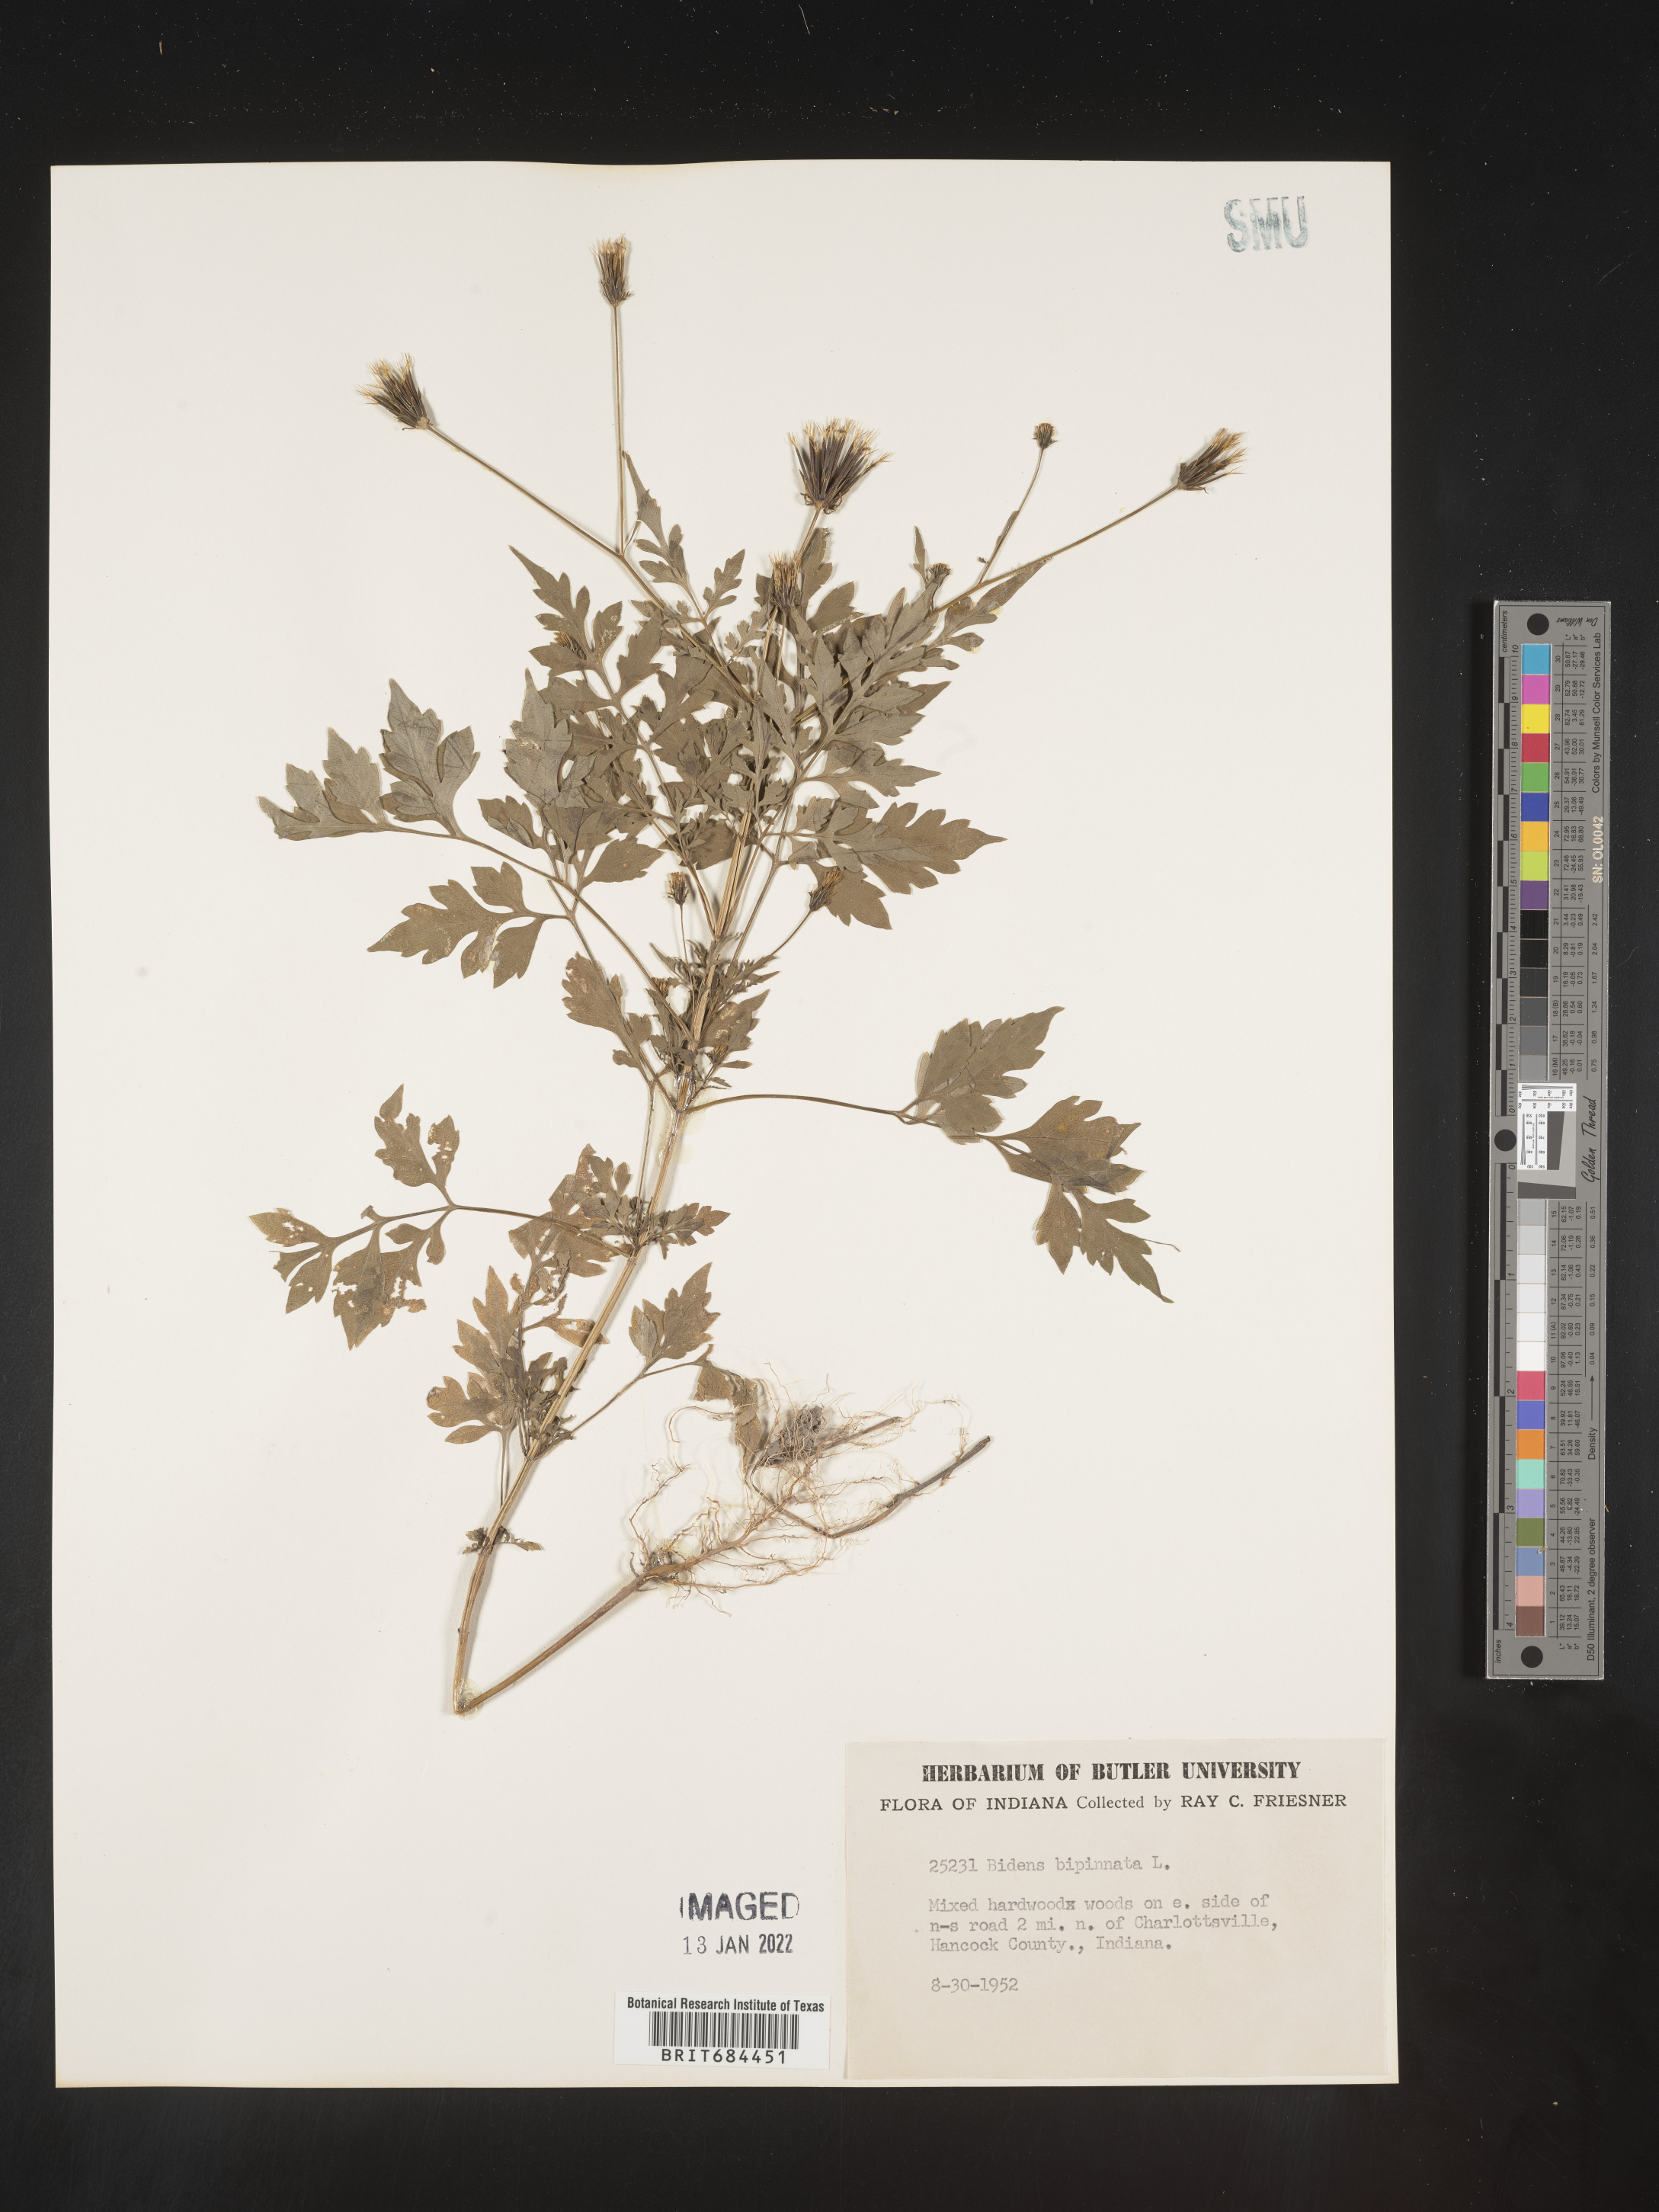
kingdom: Plantae
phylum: Tracheophyta
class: Magnoliopsida
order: Asterales
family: Asteraceae
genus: Bidens
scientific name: Bidens bipinnata
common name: Spanish-needles
